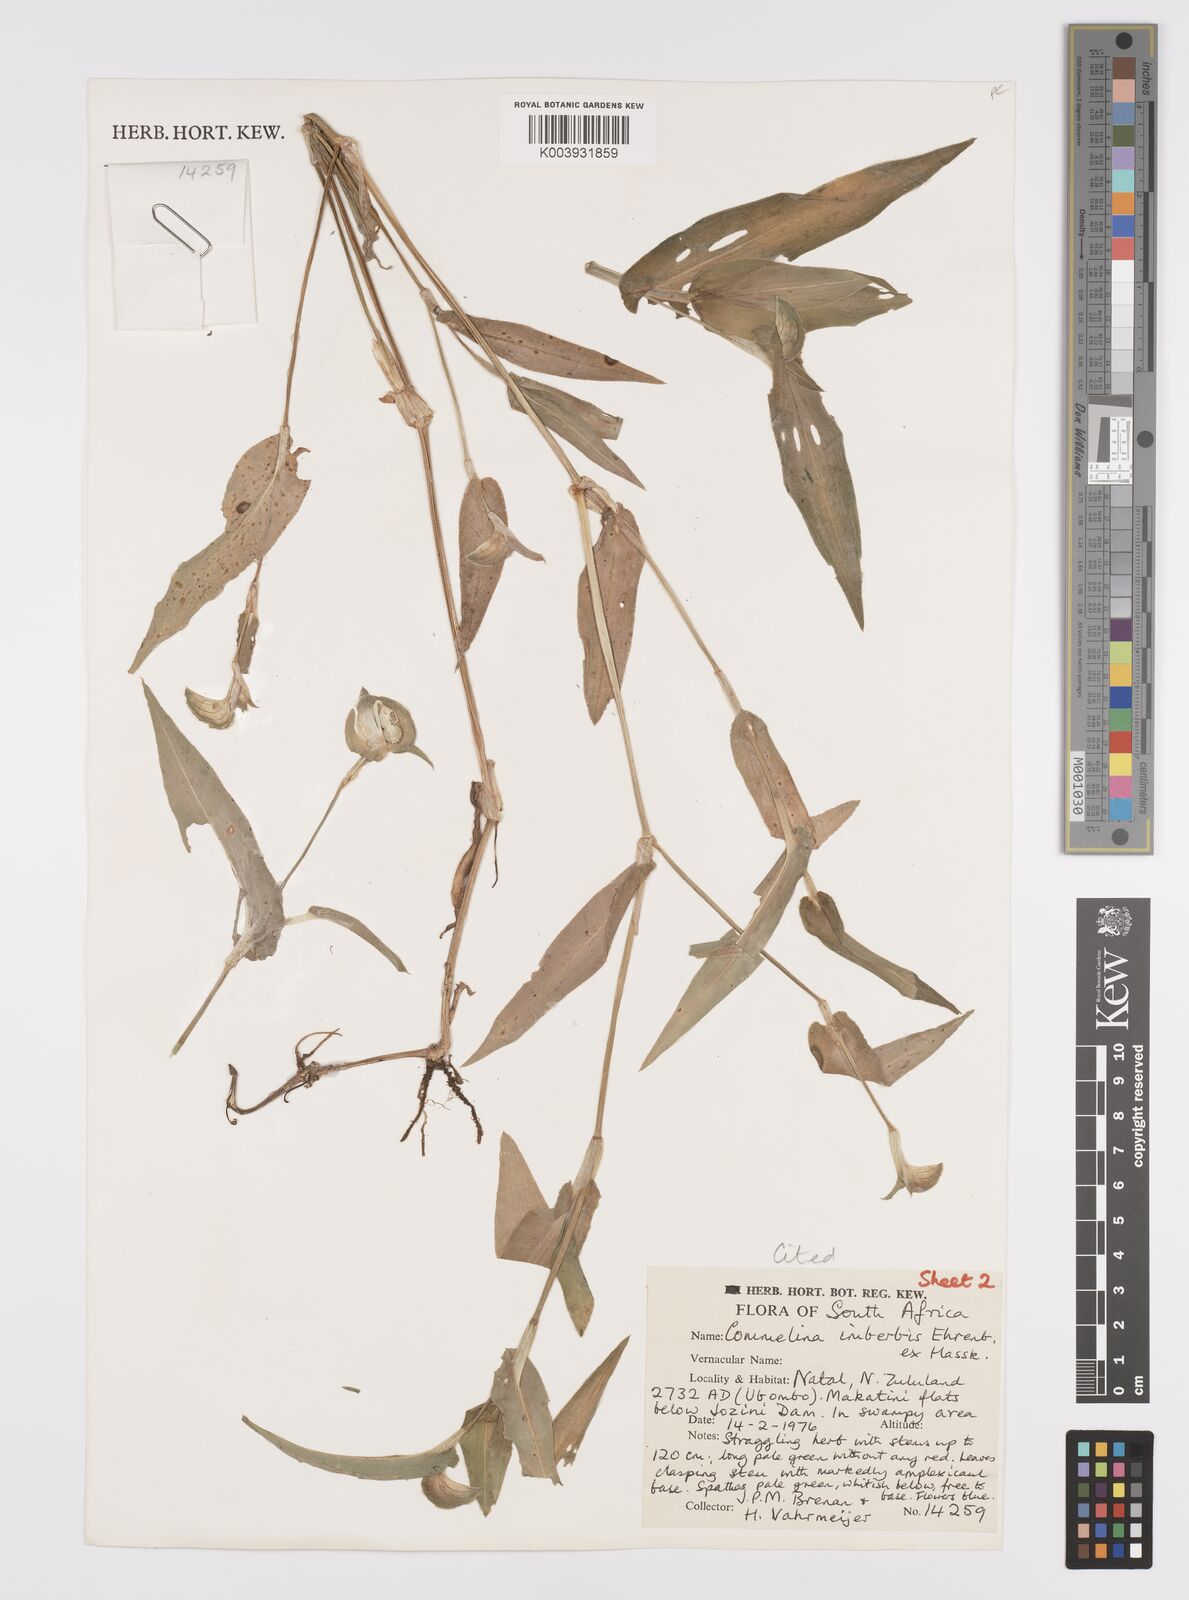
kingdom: Plantae
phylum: Tracheophyta
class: Liliopsida
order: Commelinales
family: Commelinaceae
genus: Commelina
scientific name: Commelina imberbis
